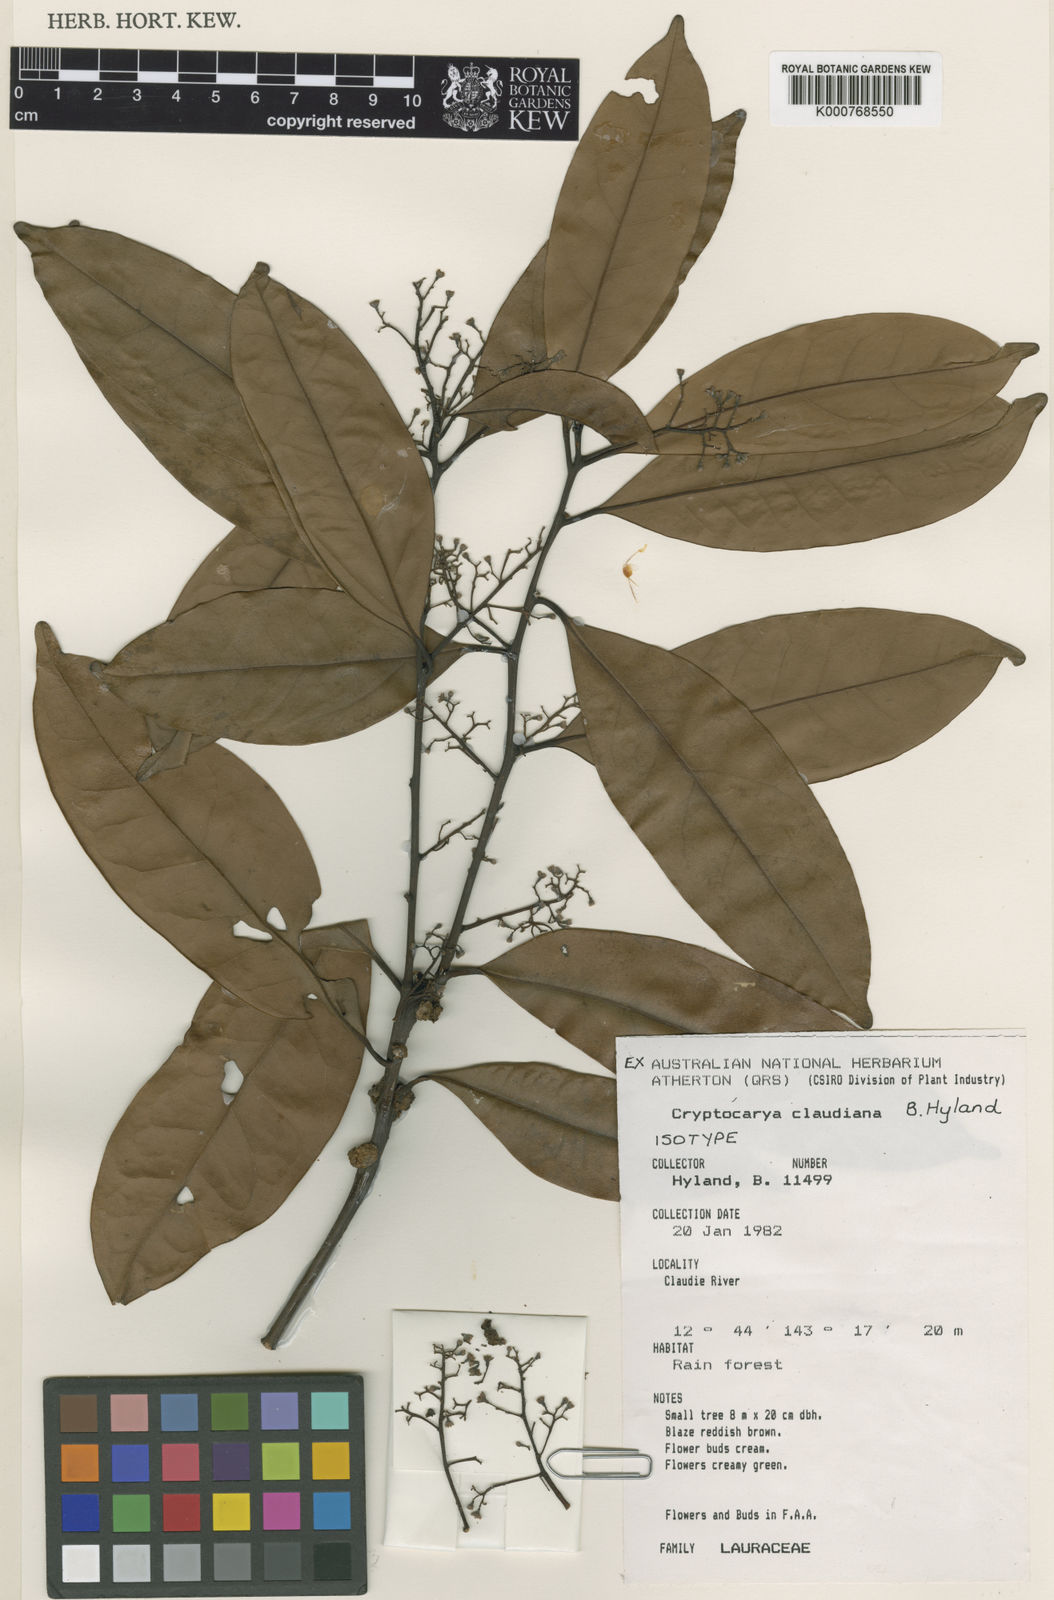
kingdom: Plantae
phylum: Tracheophyta
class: Magnoliopsida
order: Laurales
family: Lauraceae
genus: Cryptocarya
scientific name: Cryptocarya claudiana
